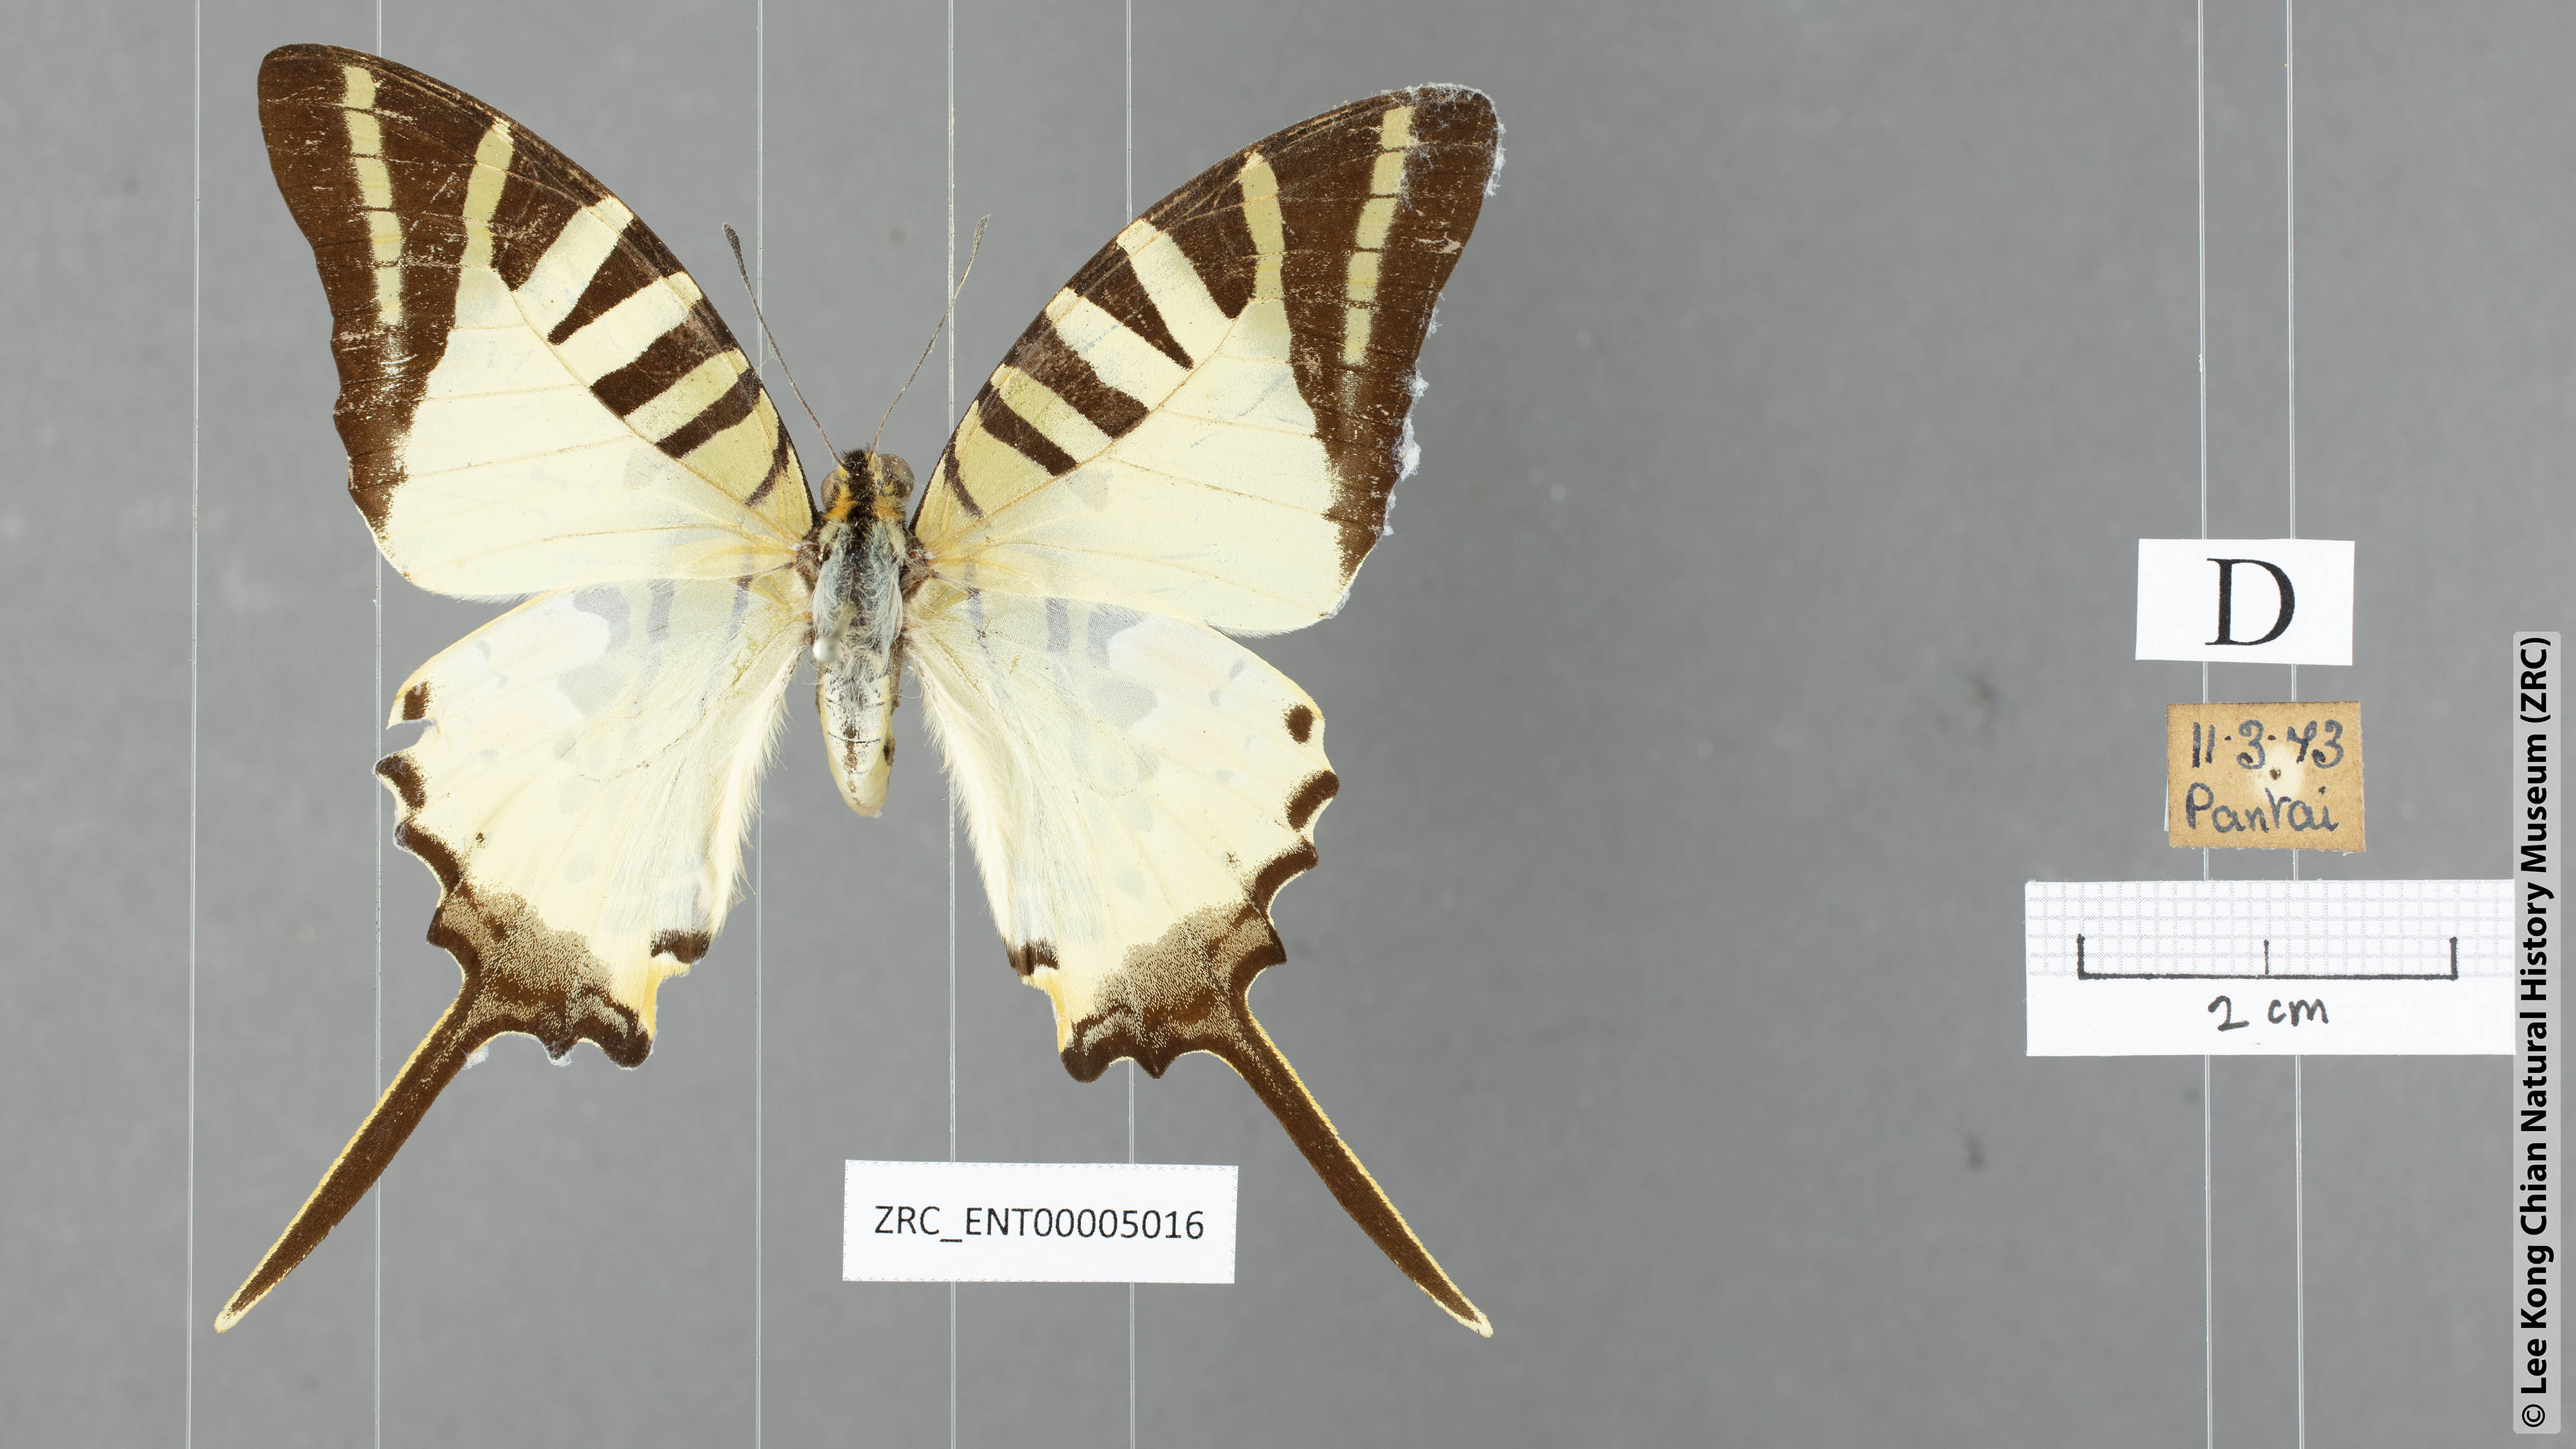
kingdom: Animalia
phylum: Arthropoda
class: Insecta
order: Lepidoptera
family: Papilionidae
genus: Graphium
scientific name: Graphium antiphates
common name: Fivebar swordtail
